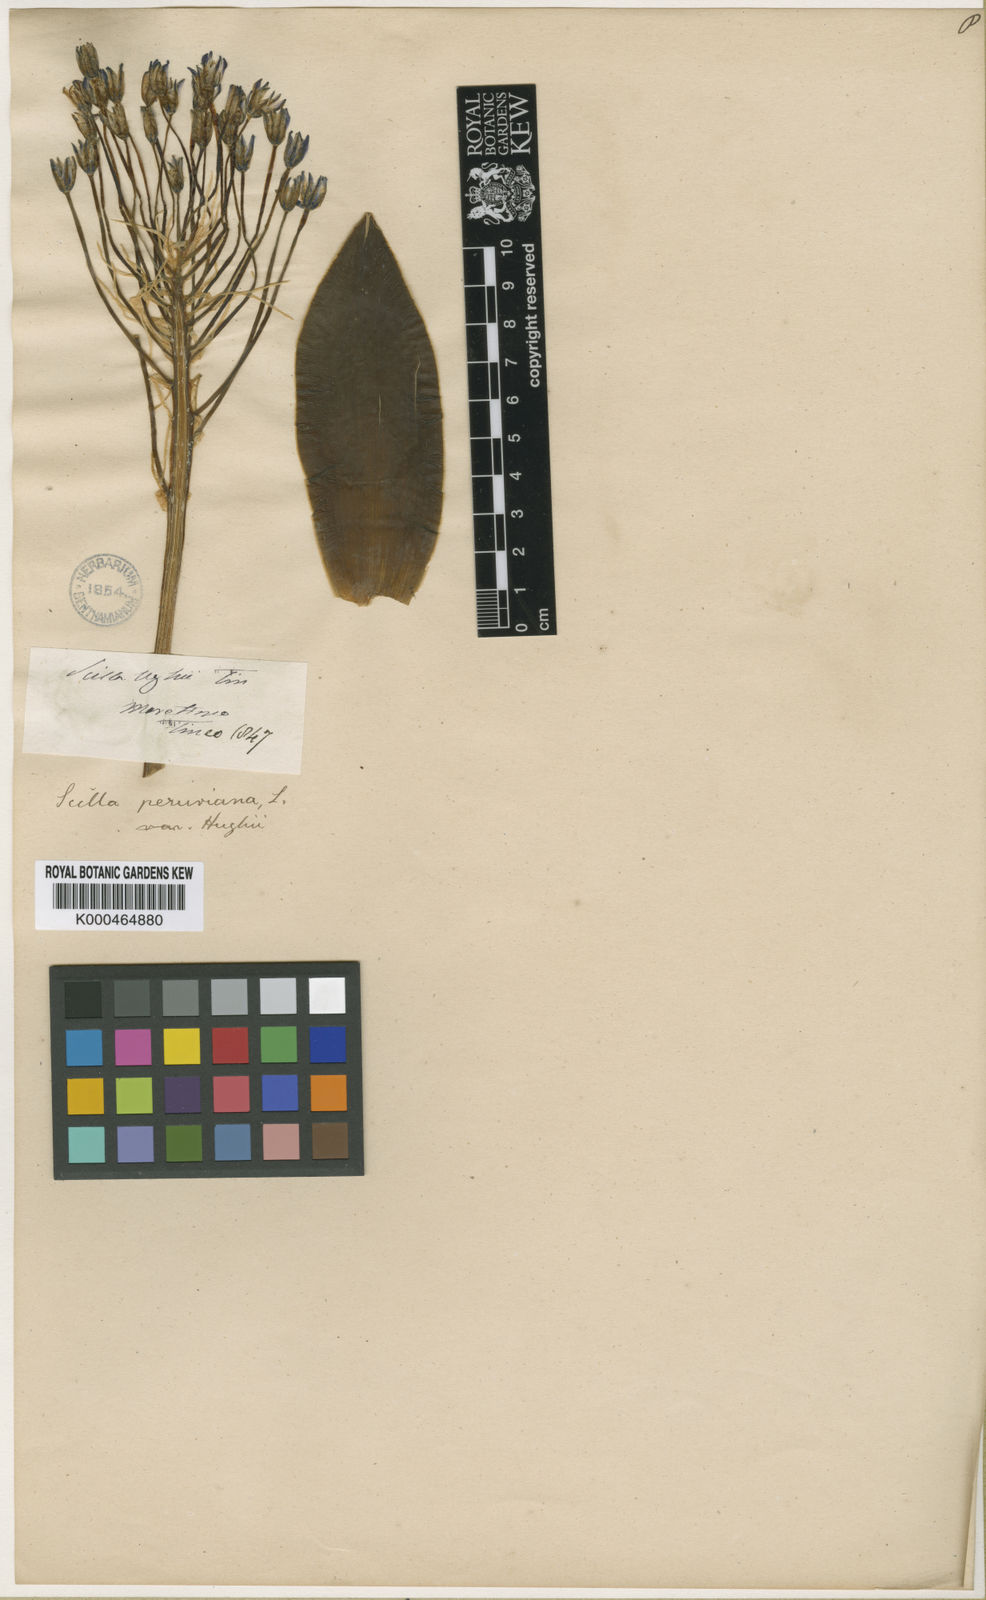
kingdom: Plantae
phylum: Tracheophyta
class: Liliopsida
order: Asparagales
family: Asparagaceae
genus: Scilla
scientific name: Scilla peruviana
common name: Portuguese squill
